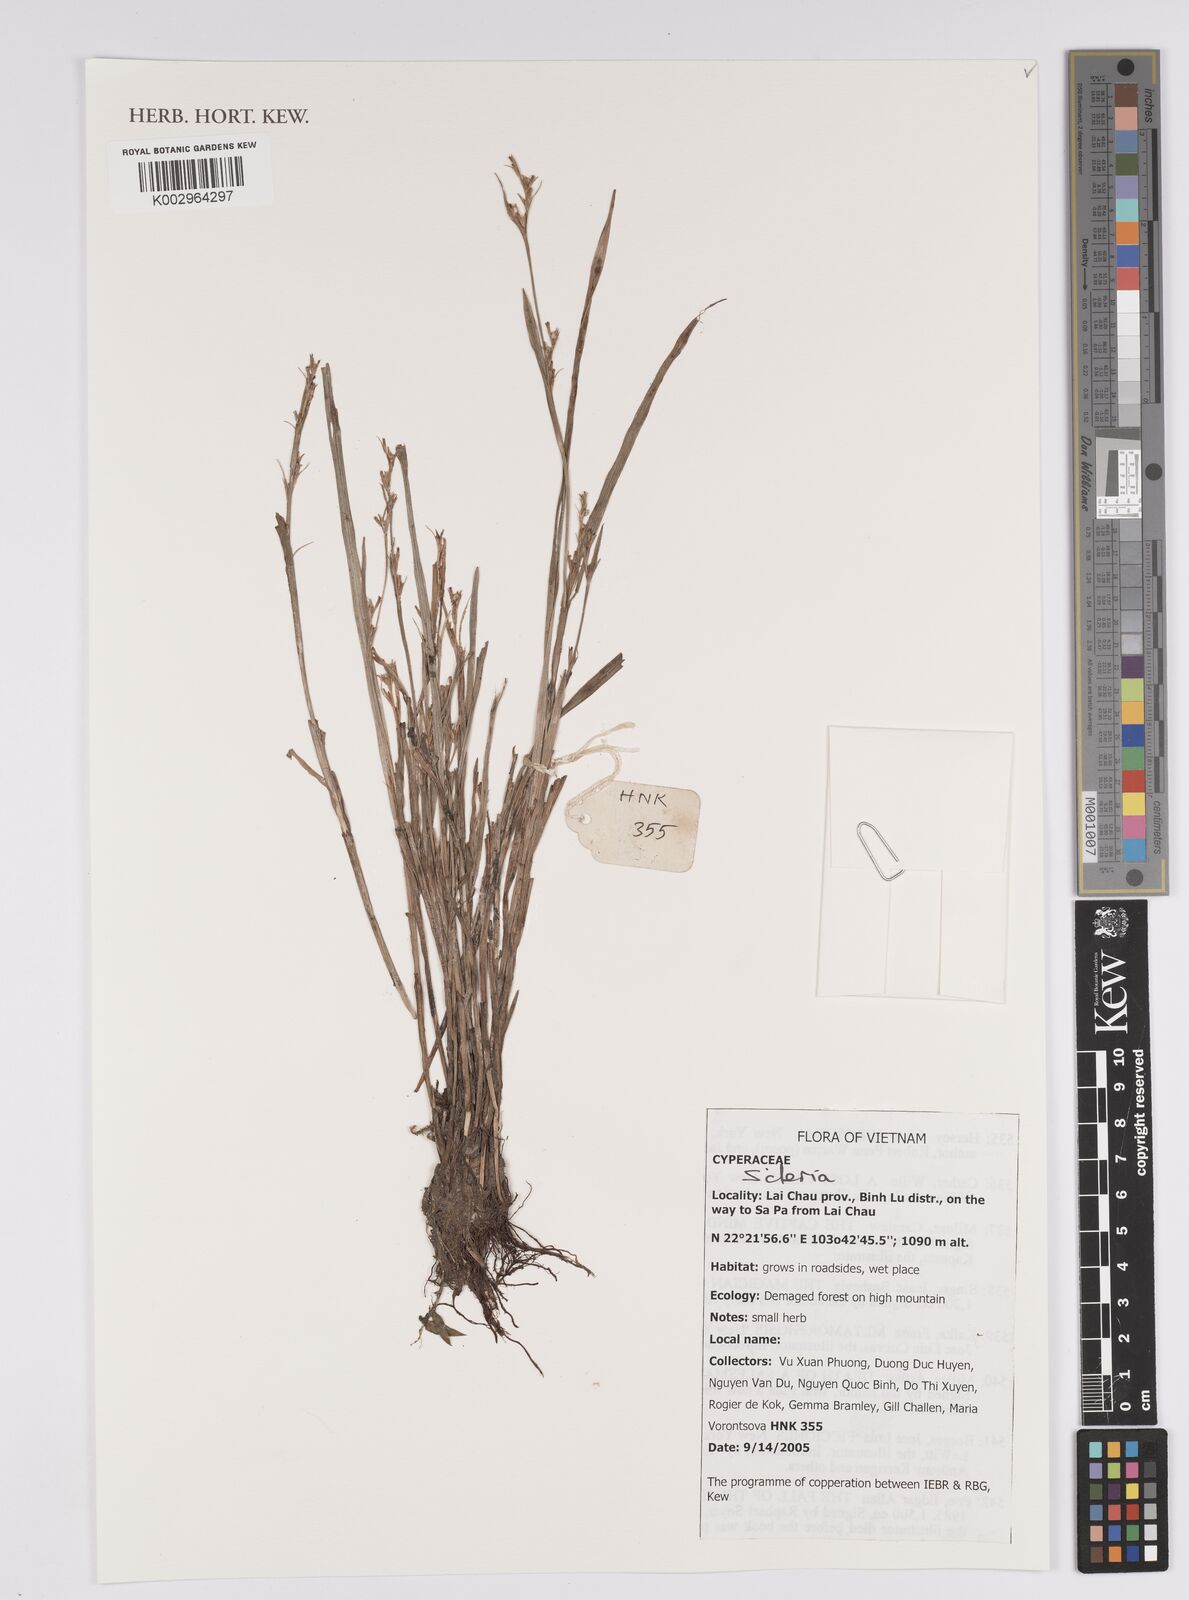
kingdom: Plantae
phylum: Tracheophyta
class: Liliopsida
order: Poales
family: Cyperaceae
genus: Scleria
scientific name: Scleria
